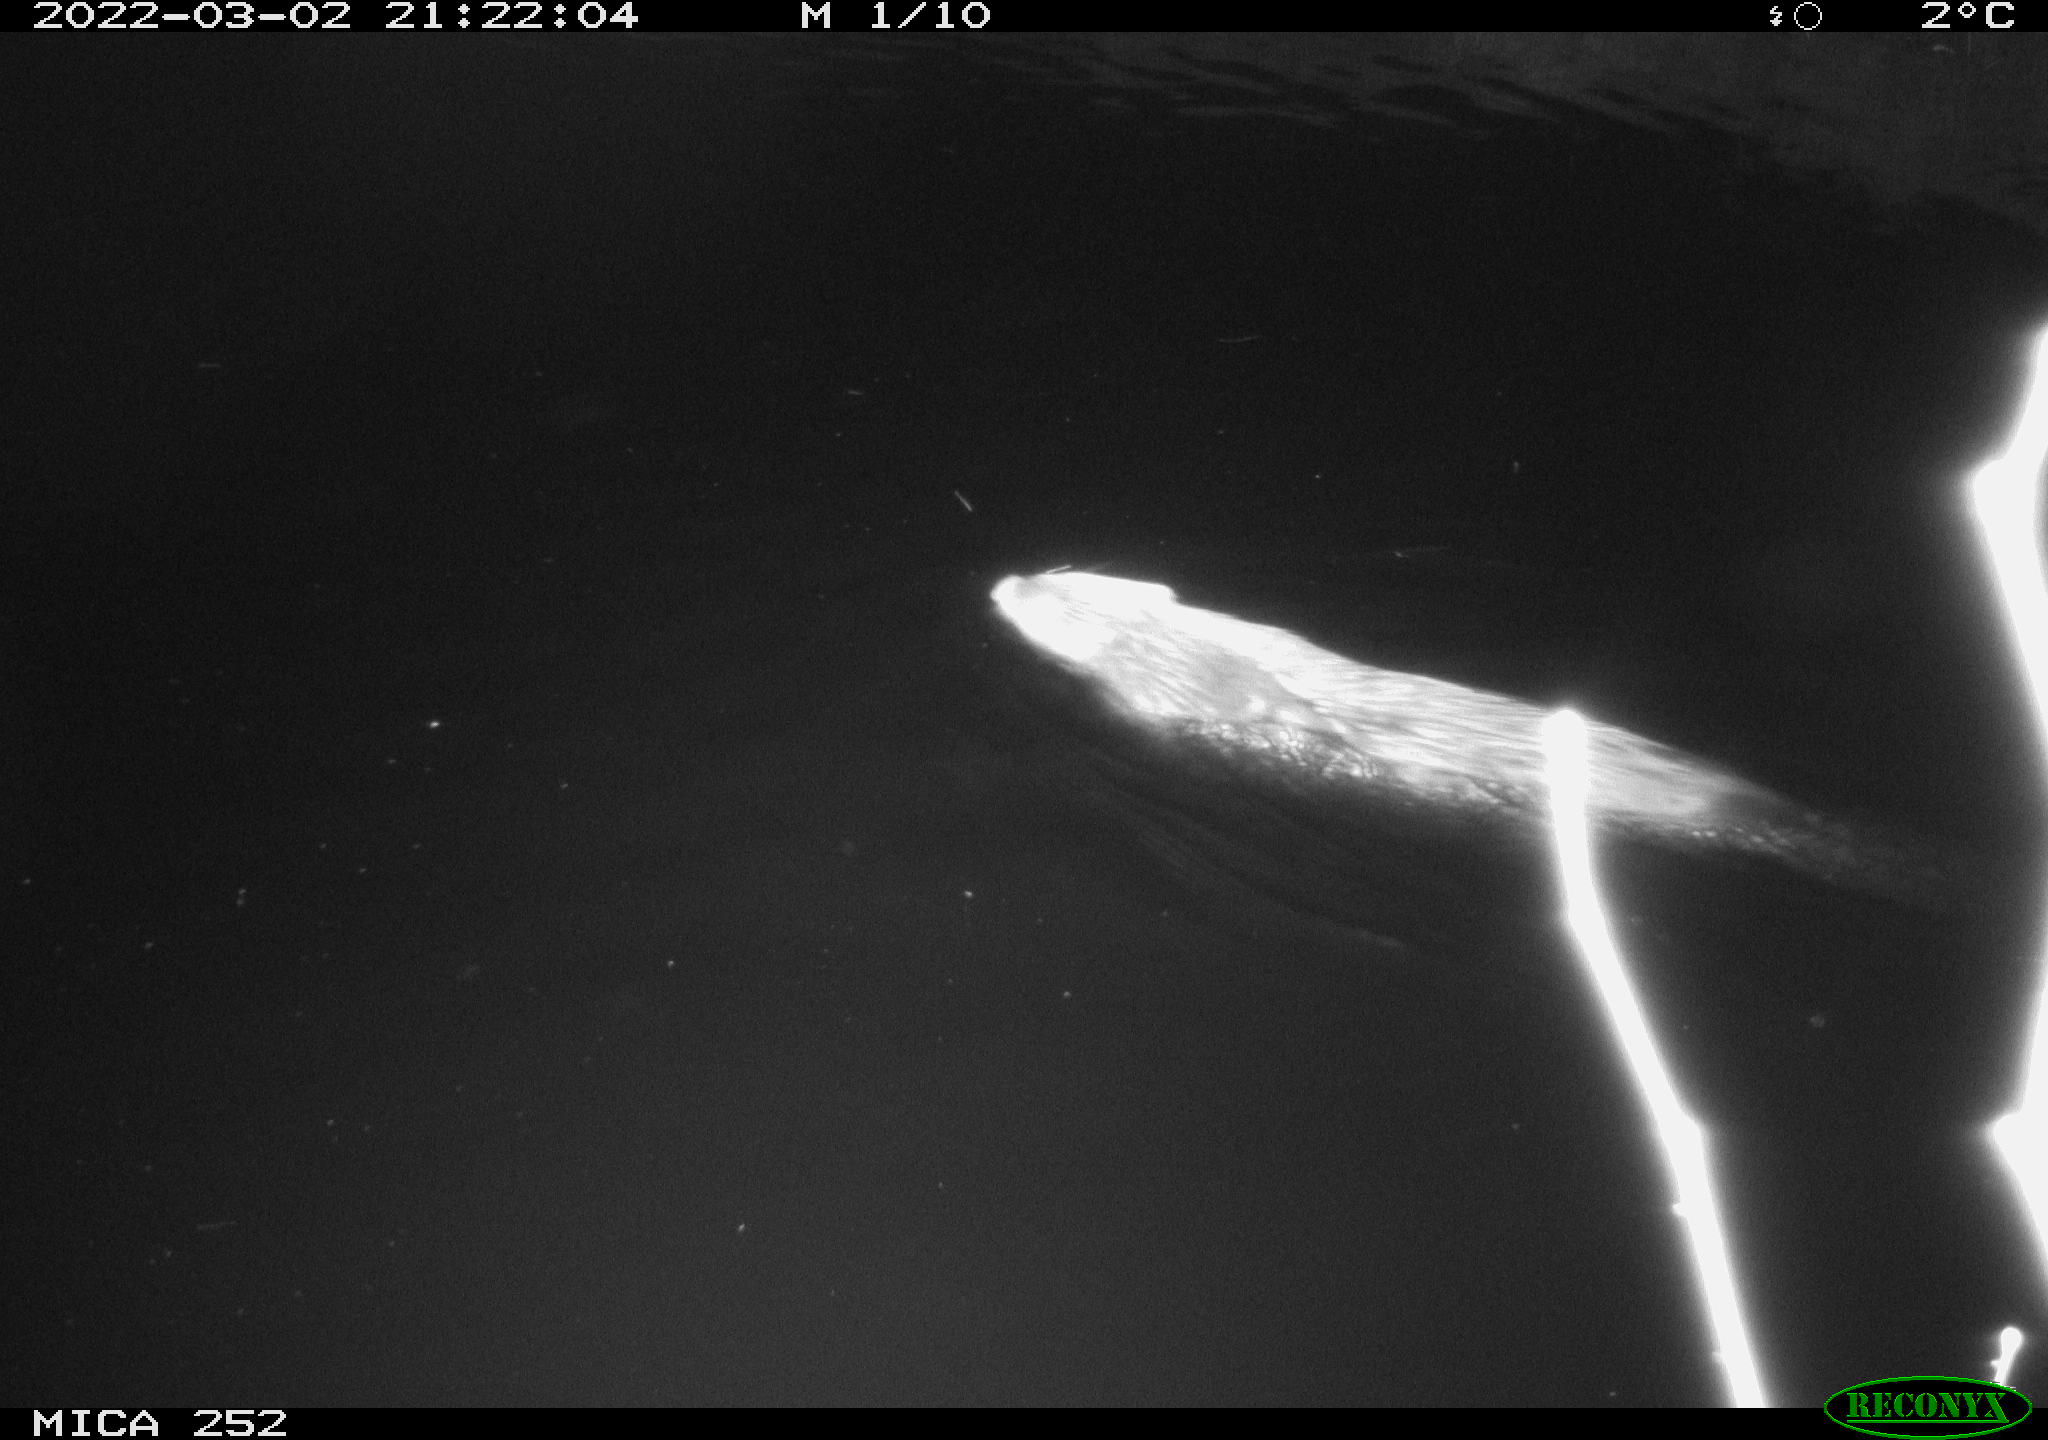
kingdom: Animalia
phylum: Chordata
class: Mammalia
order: Rodentia
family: Castoridae
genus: Castor
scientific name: Castor fiber
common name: Eurasian beaver
